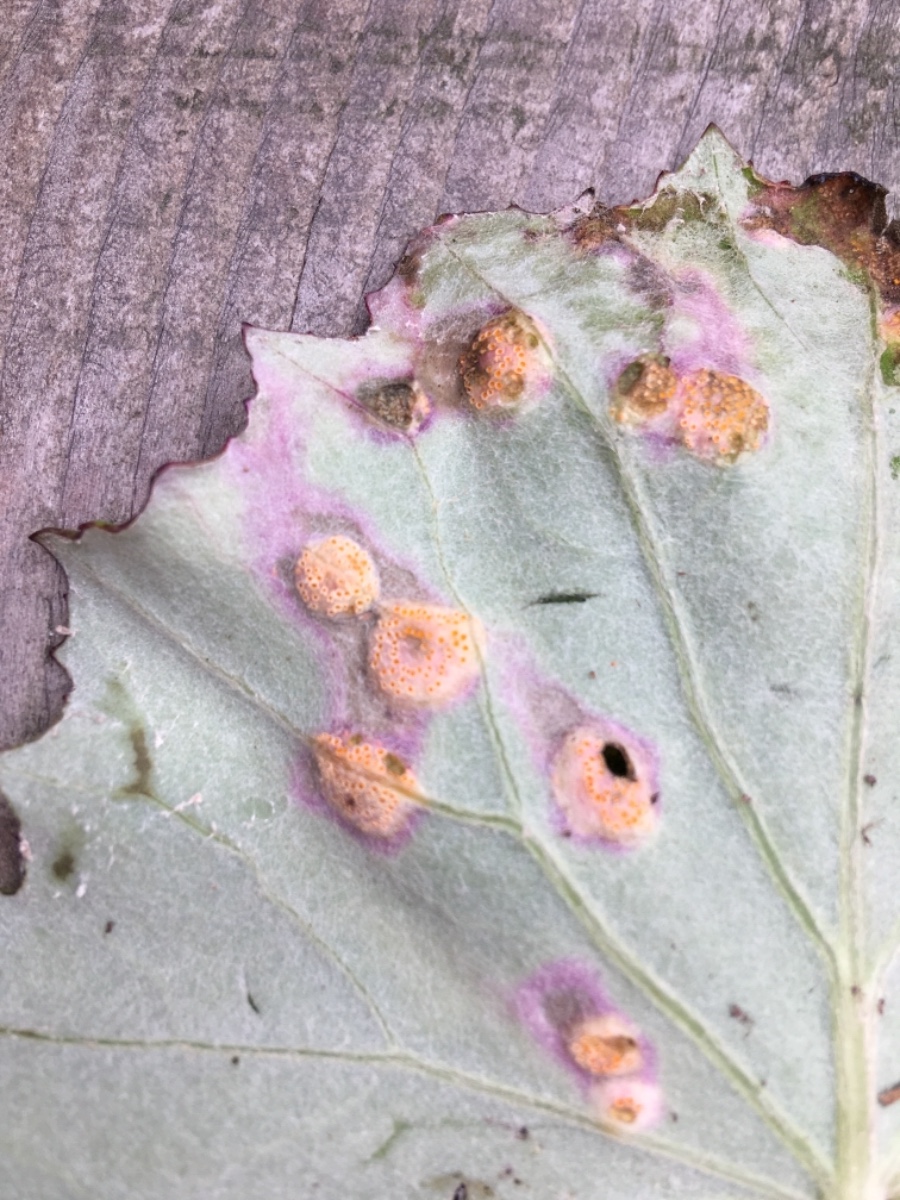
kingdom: Fungi
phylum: Basidiomycota
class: Pucciniomycetes
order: Pucciniales
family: Pucciniaceae
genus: Puccinia
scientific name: Puccinia poarum
